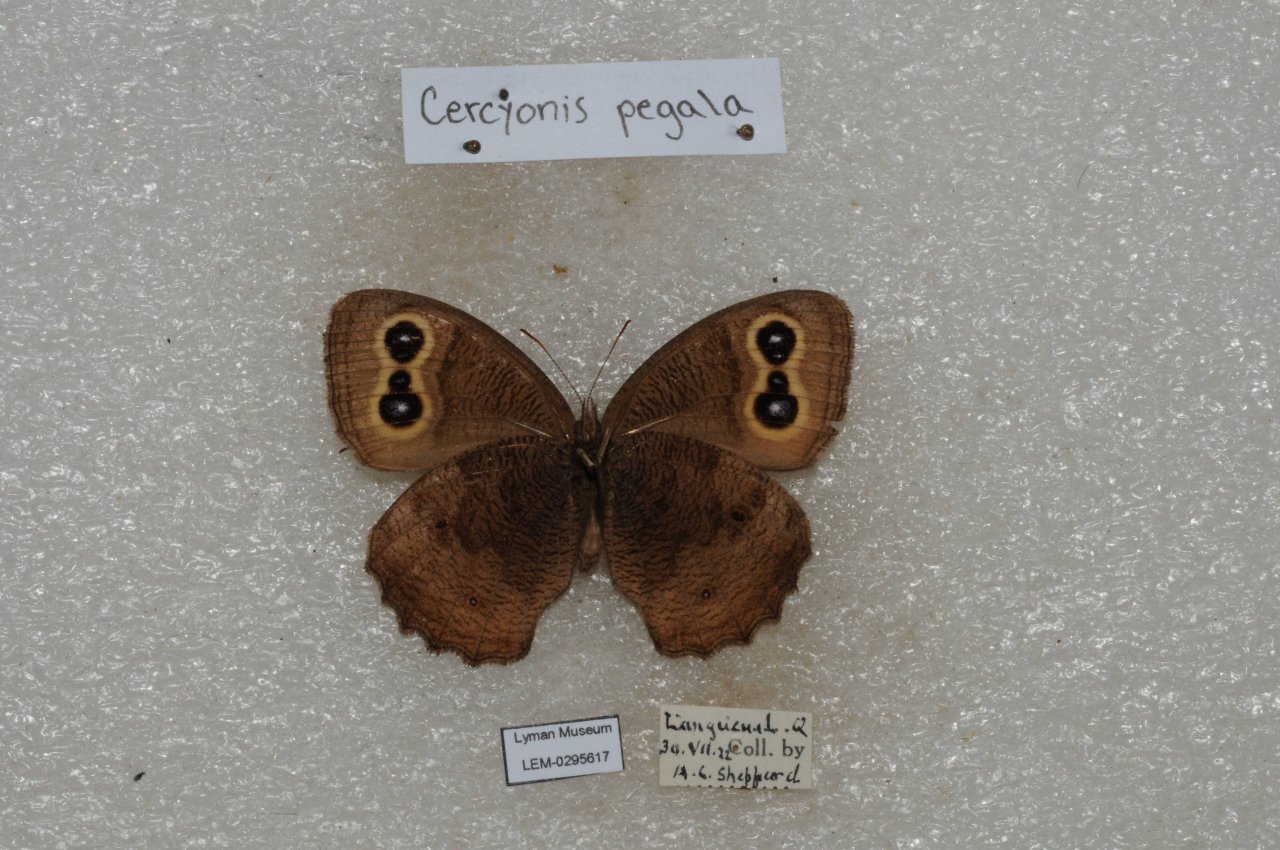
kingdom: Animalia
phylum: Arthropoda
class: Insecta
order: Lepidoptera
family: Nymphalidae
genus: Cercyonis
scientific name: Cercyonis pegala
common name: Common Wood-Nymph
